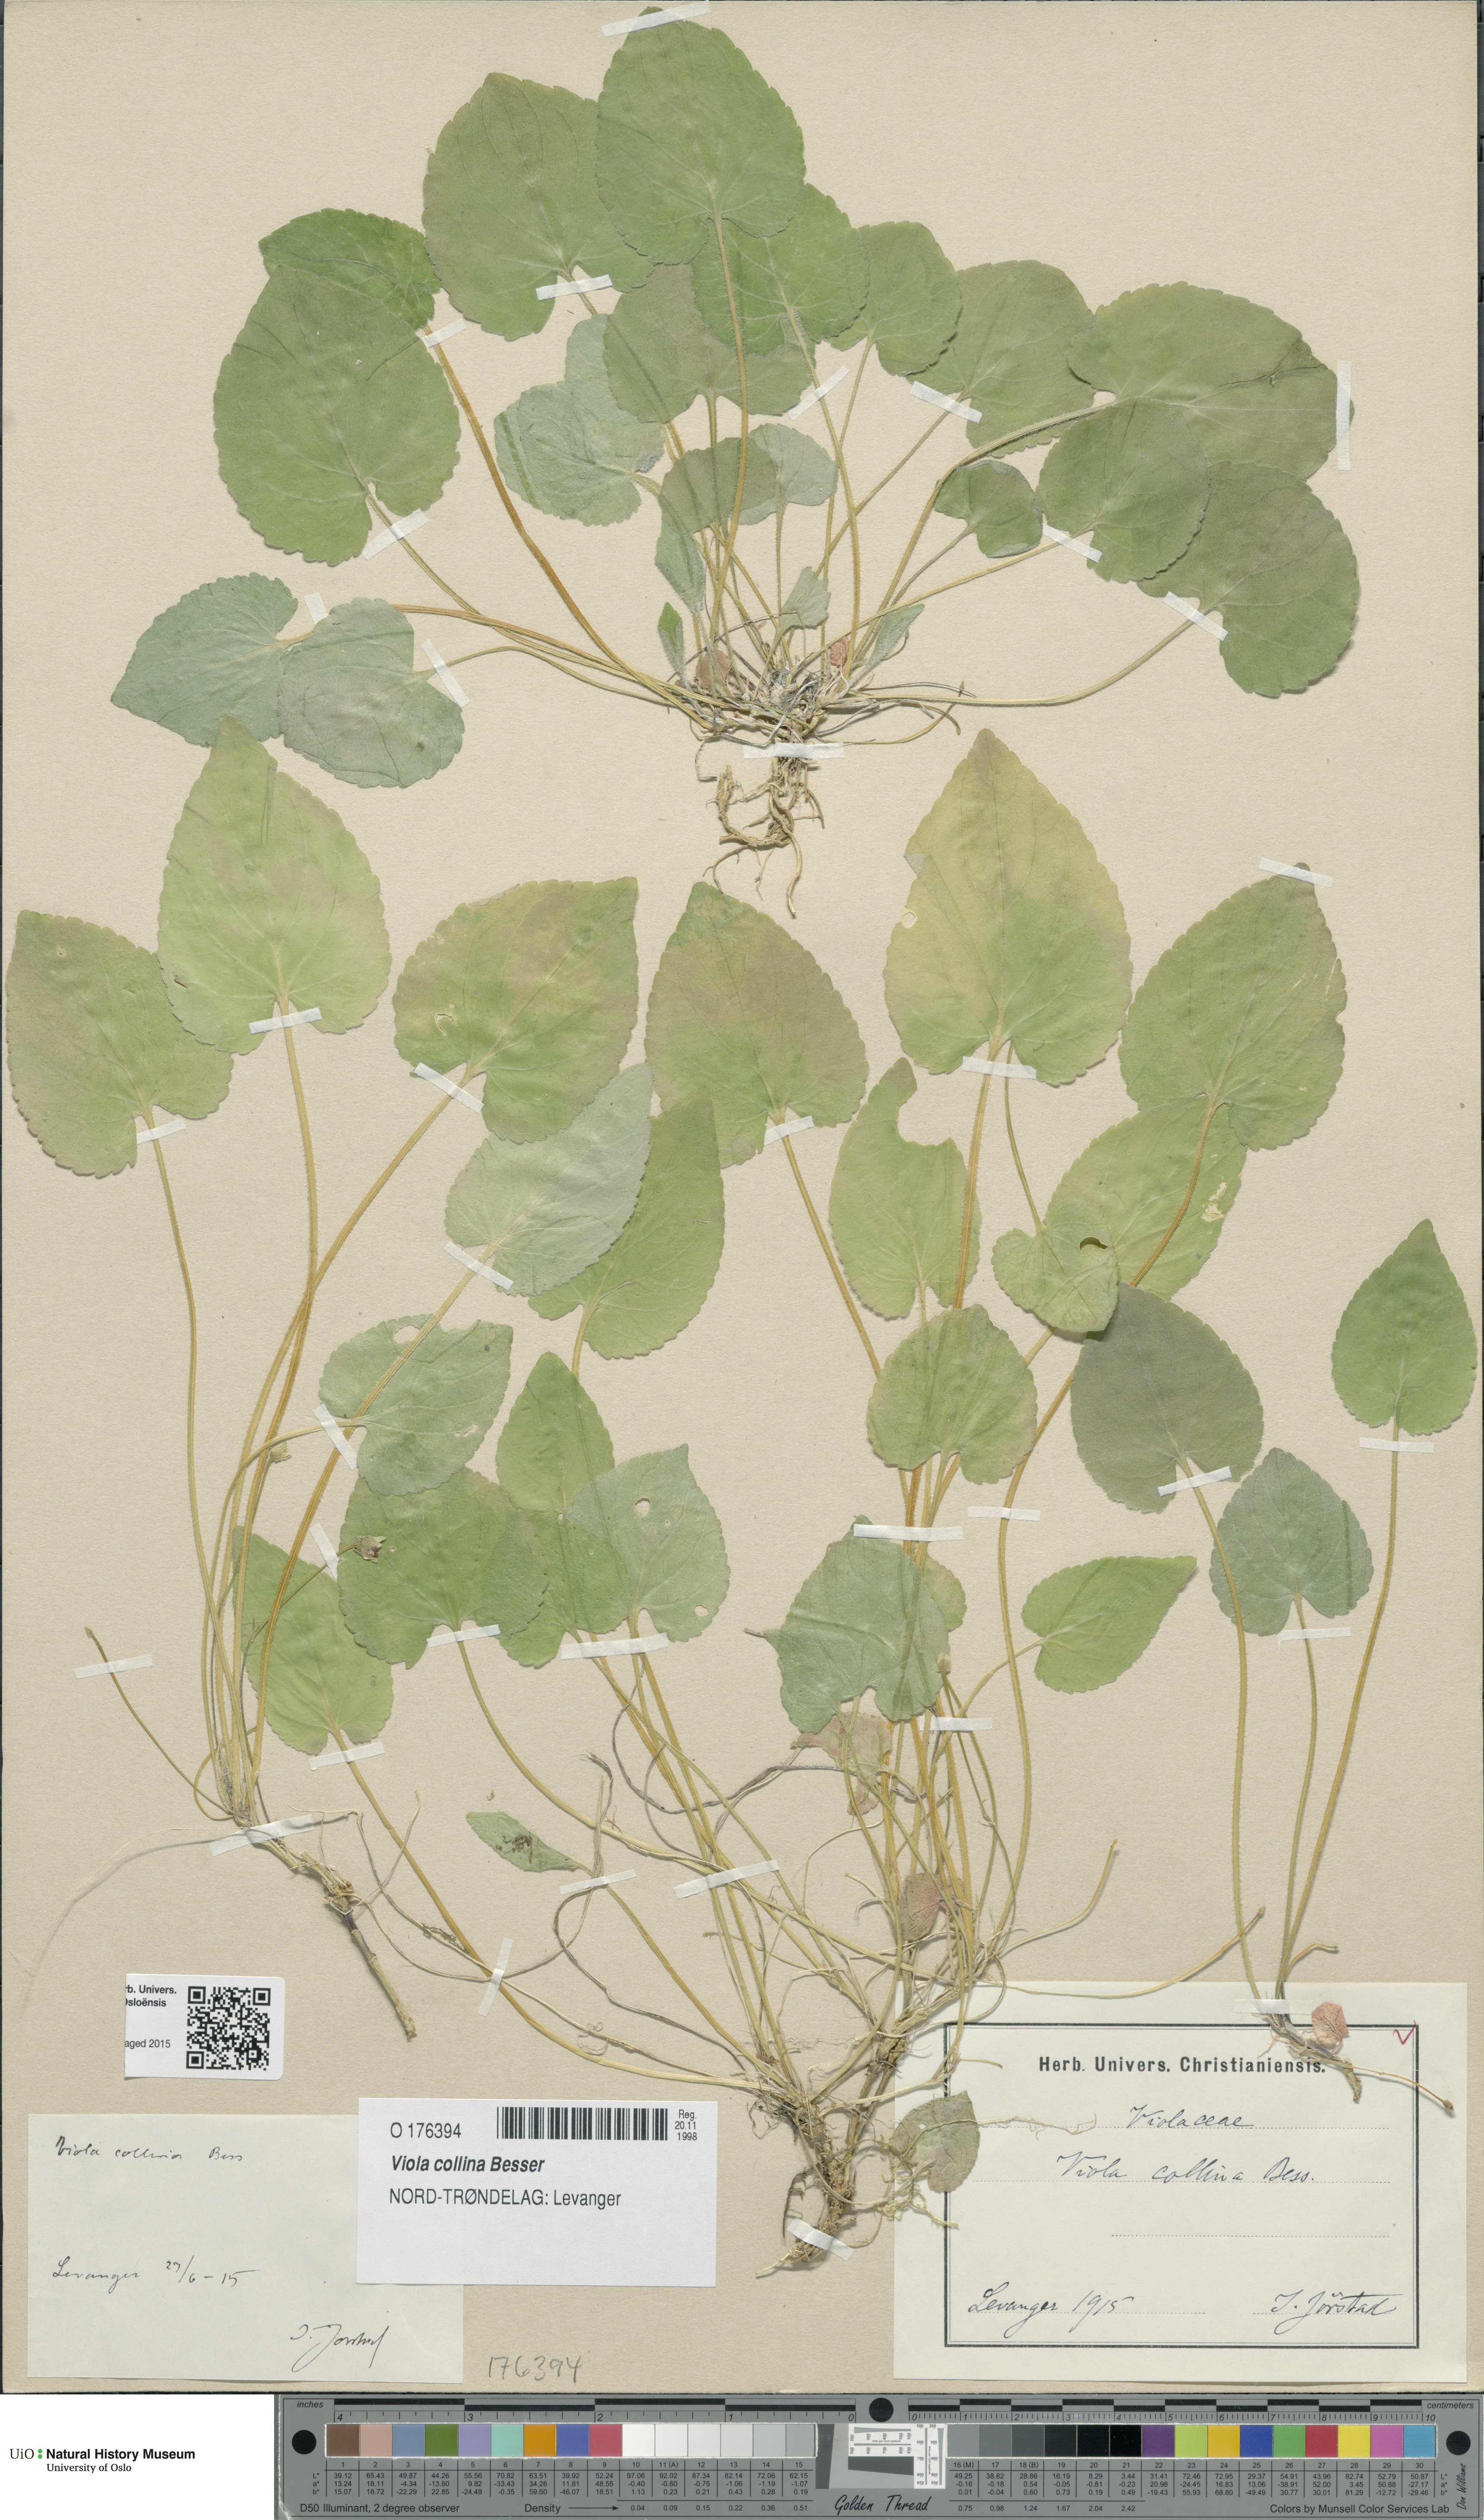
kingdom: Plantae
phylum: Tracheophyta
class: Magnoliopsida
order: Malpighiales
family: Violaceae
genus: Viola
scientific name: Viola collina
